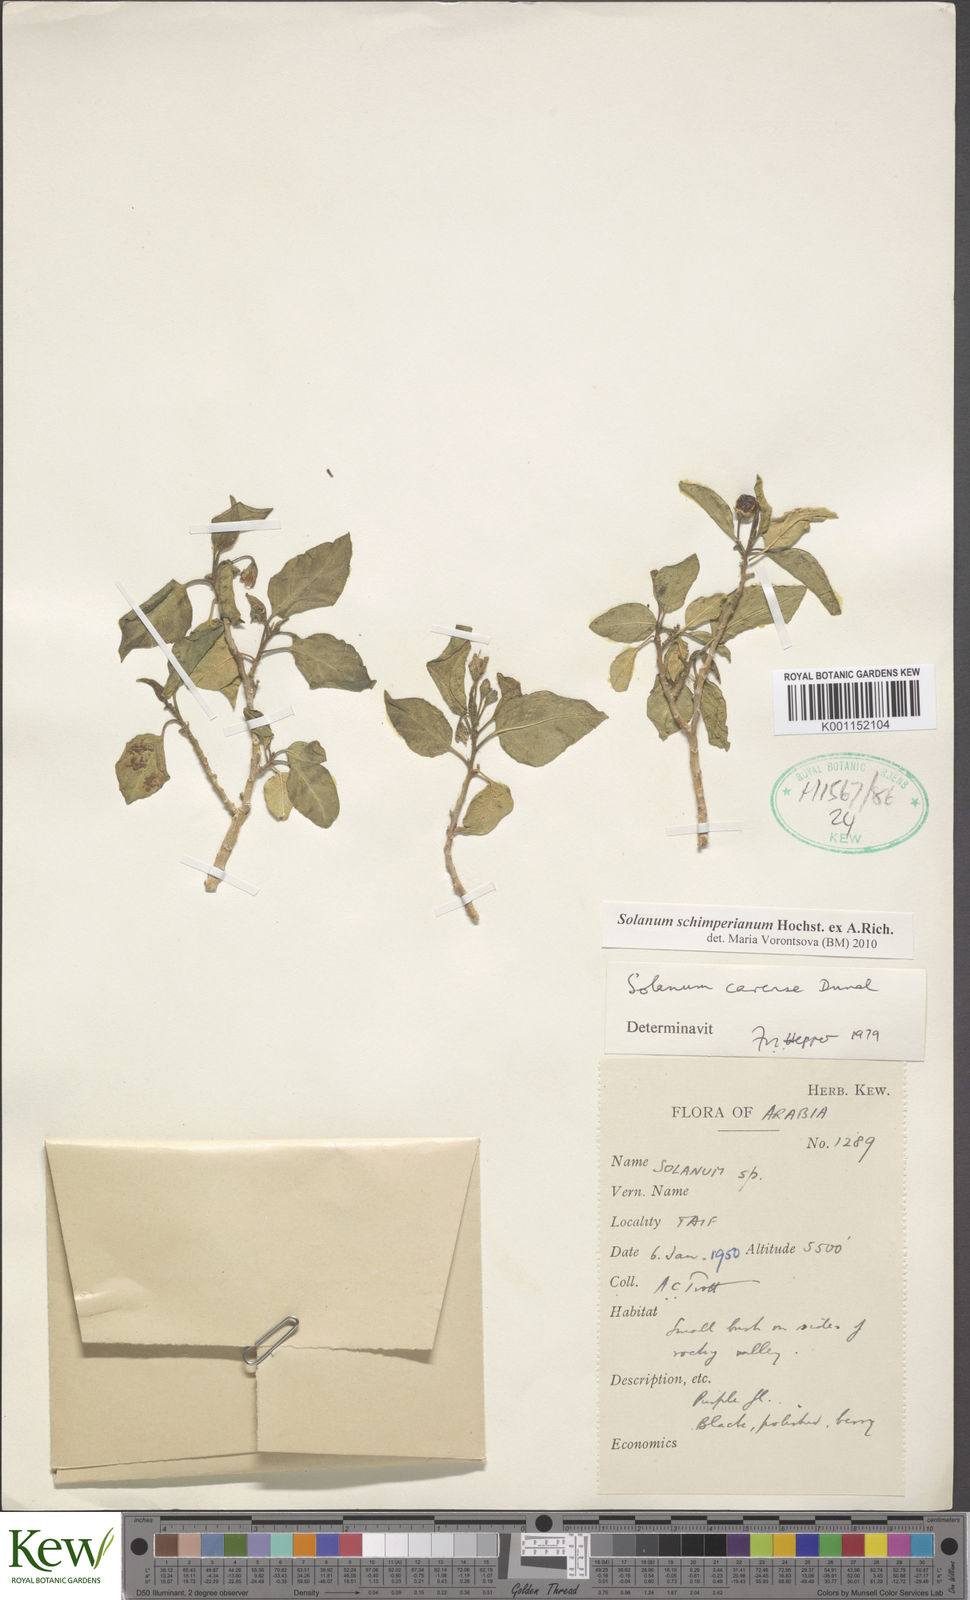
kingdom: Plantae
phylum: Tracheophyta
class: Magnoliopsida
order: Solanales
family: Solanaceae
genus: Solanum
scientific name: Solanum
